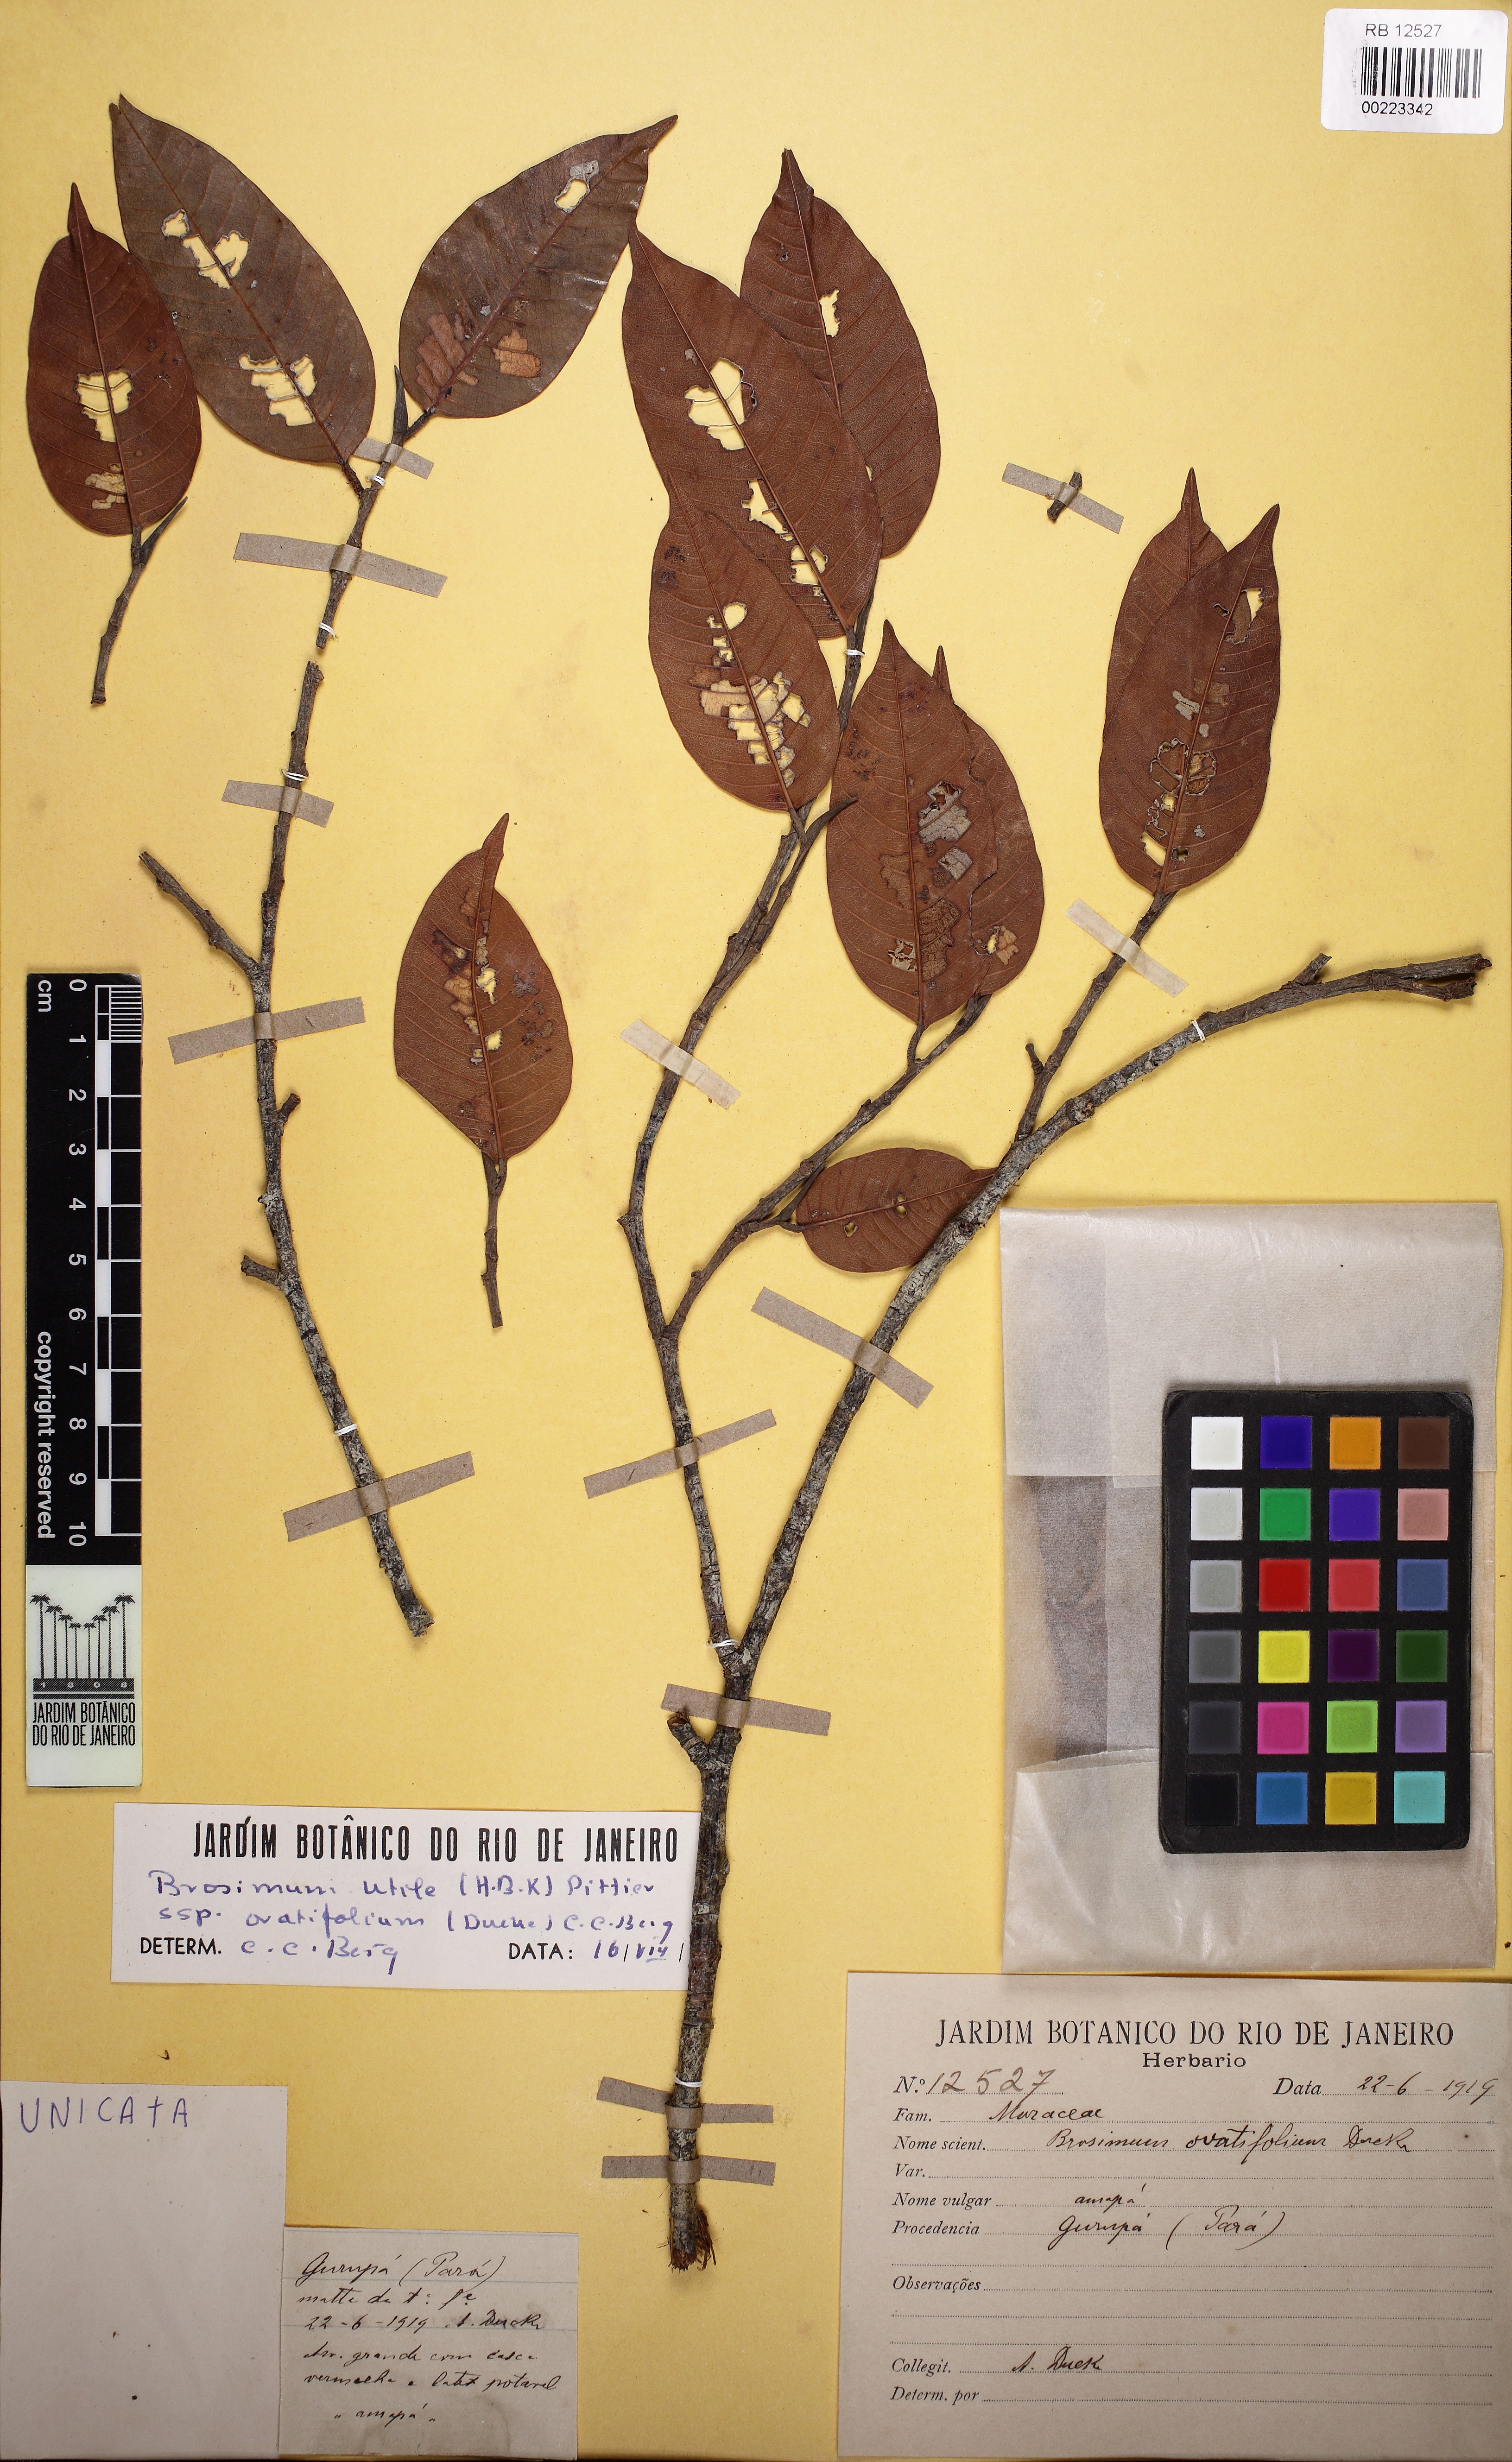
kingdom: Plantae
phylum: Tracheophyta
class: Magnoliopsida
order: Rosales
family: Moraceae
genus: Brosimum
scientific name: Brosimum utile
